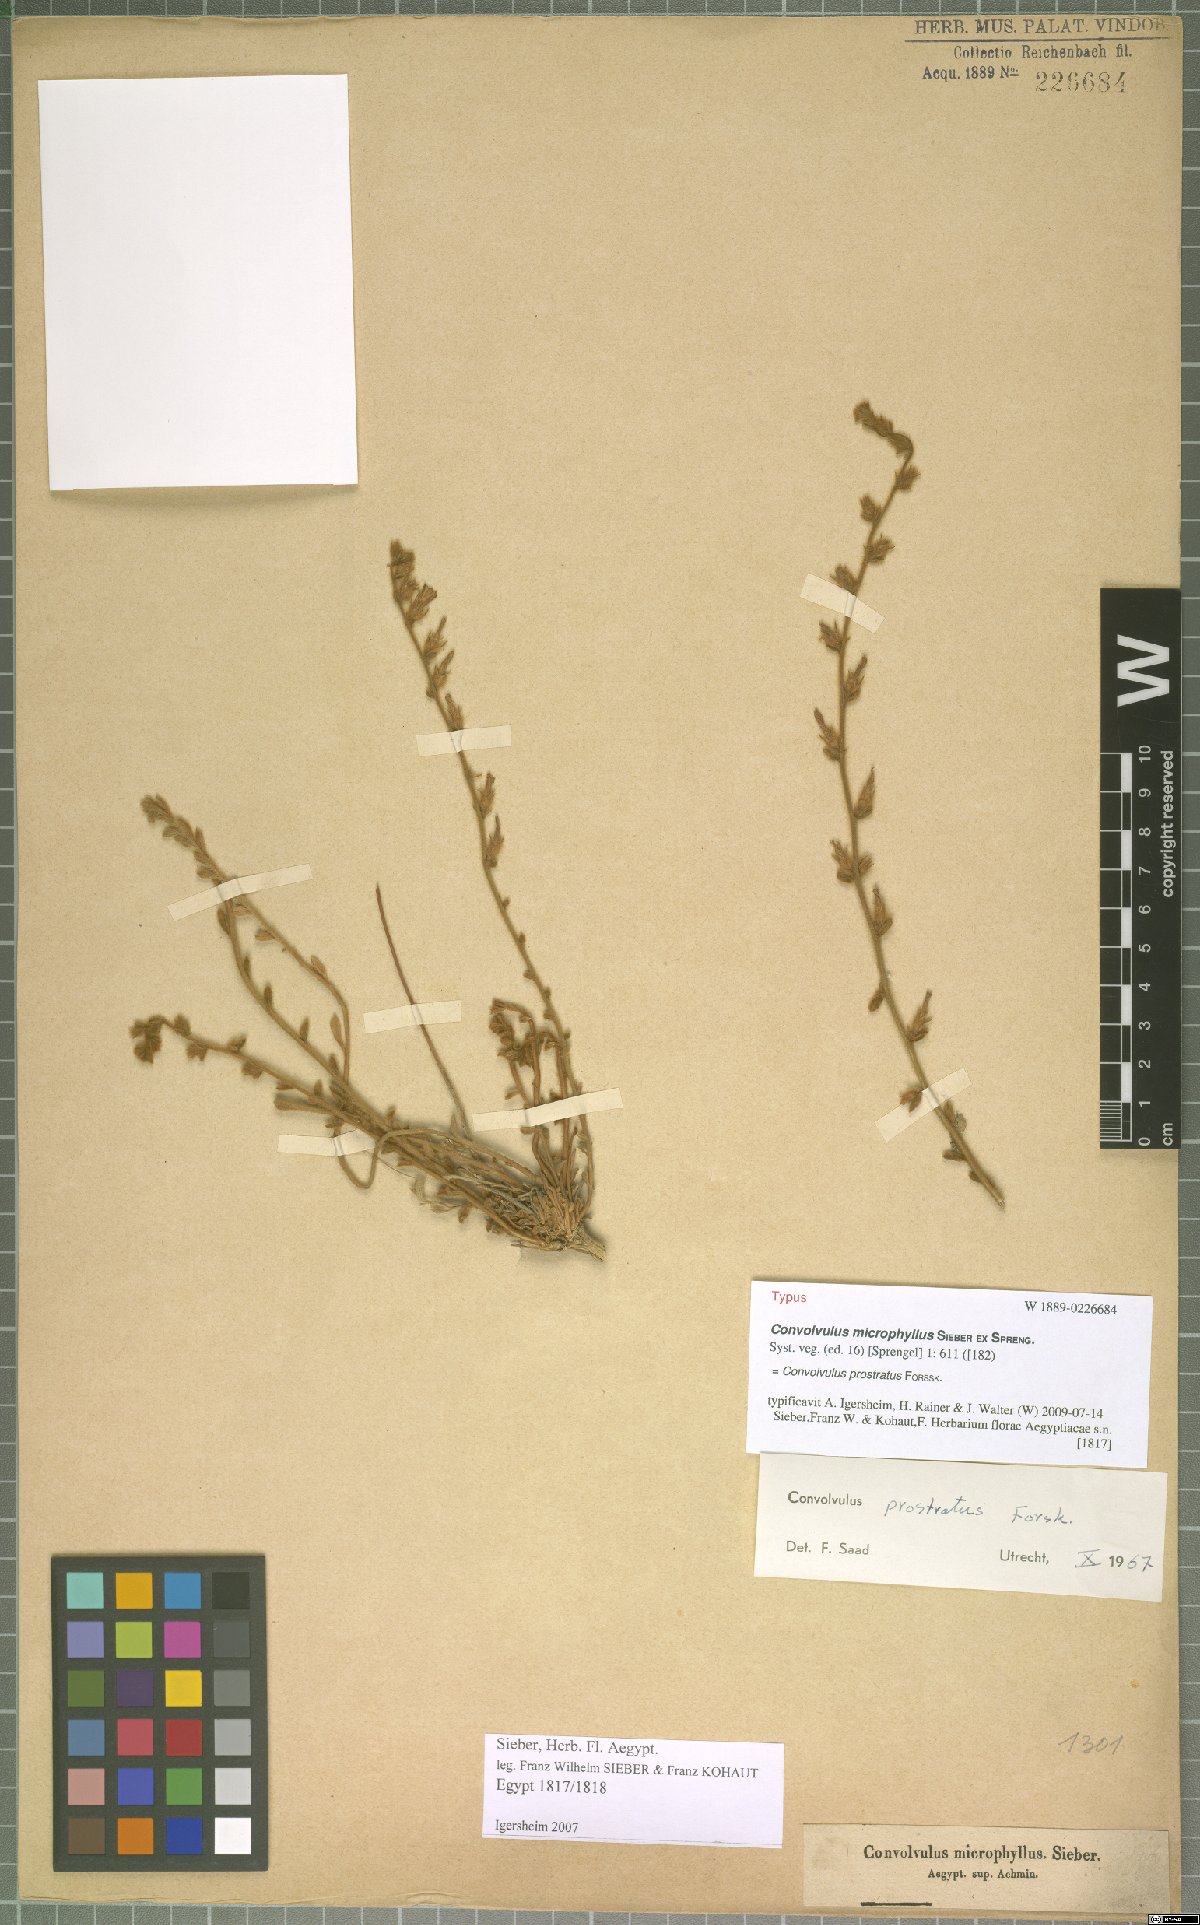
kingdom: Plantae
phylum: Tracheophyta
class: Magnoliopsida
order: Solanales
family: Convolvulaceae
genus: Convolvulus
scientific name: Convolvulus prostratus
